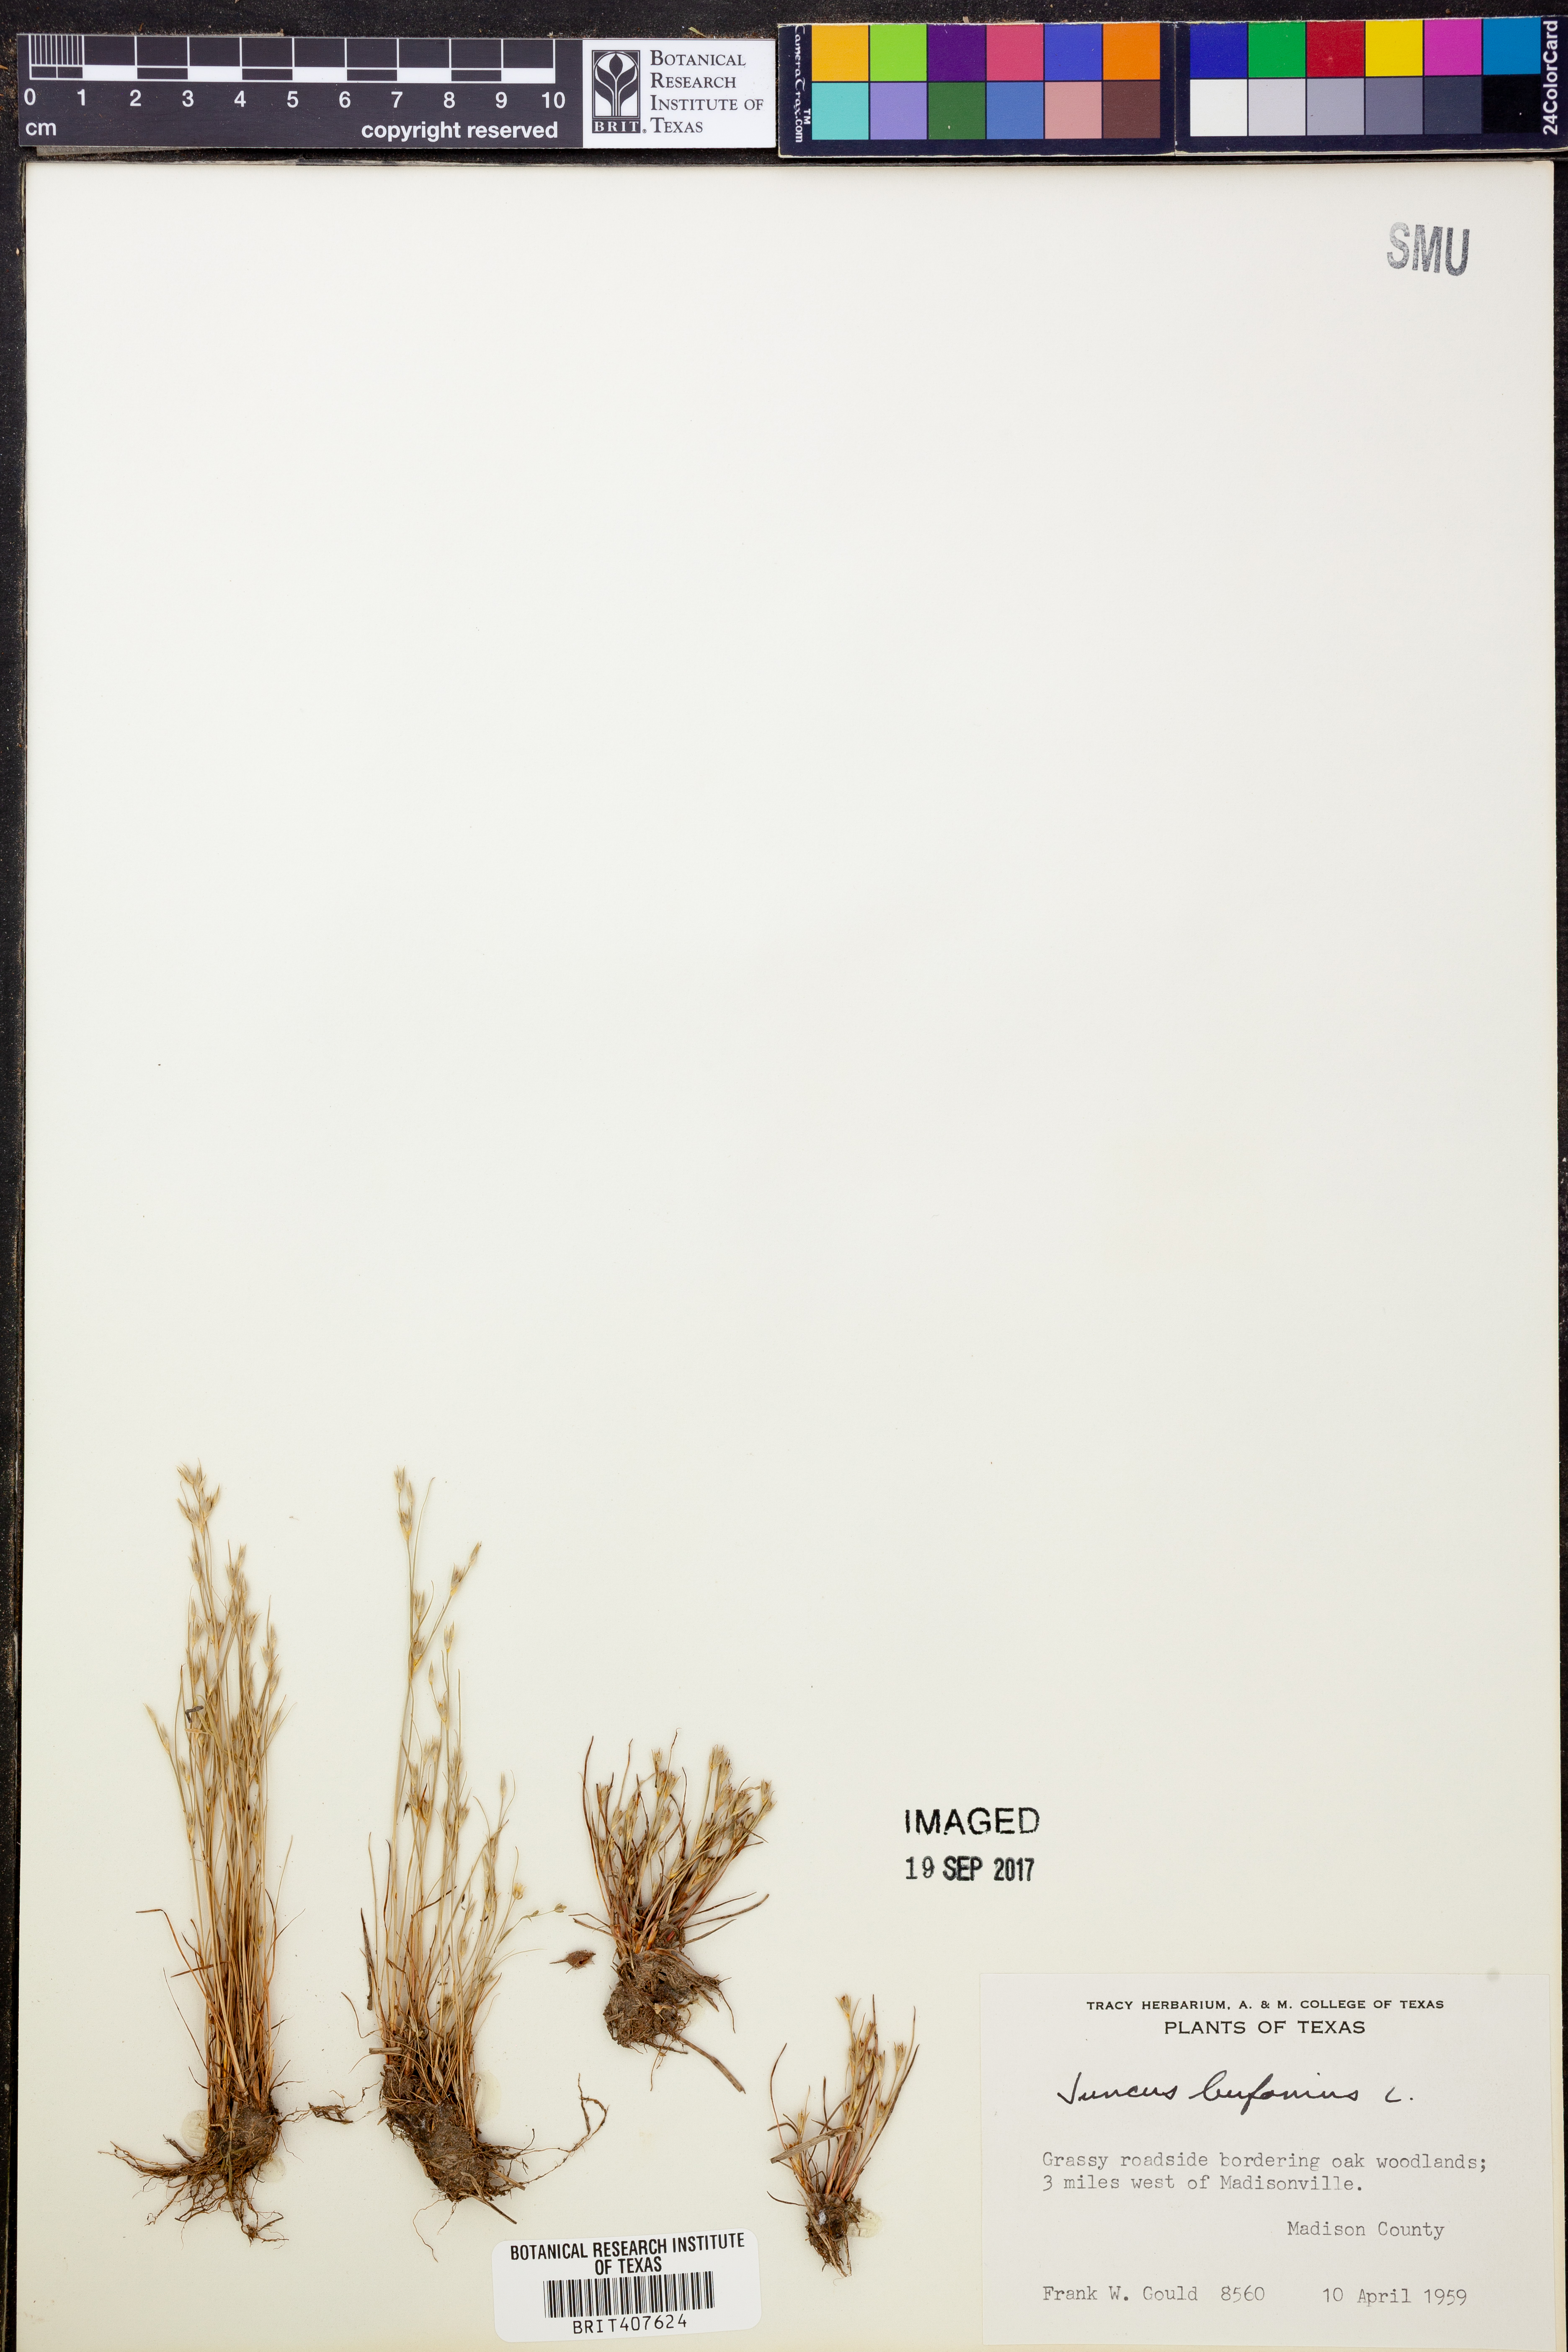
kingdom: Plantae
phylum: Tracheophyta
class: Liliopsida
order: Poales
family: Juncaceae
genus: Juncus
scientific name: Juncus bufonius
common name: Toad rush
